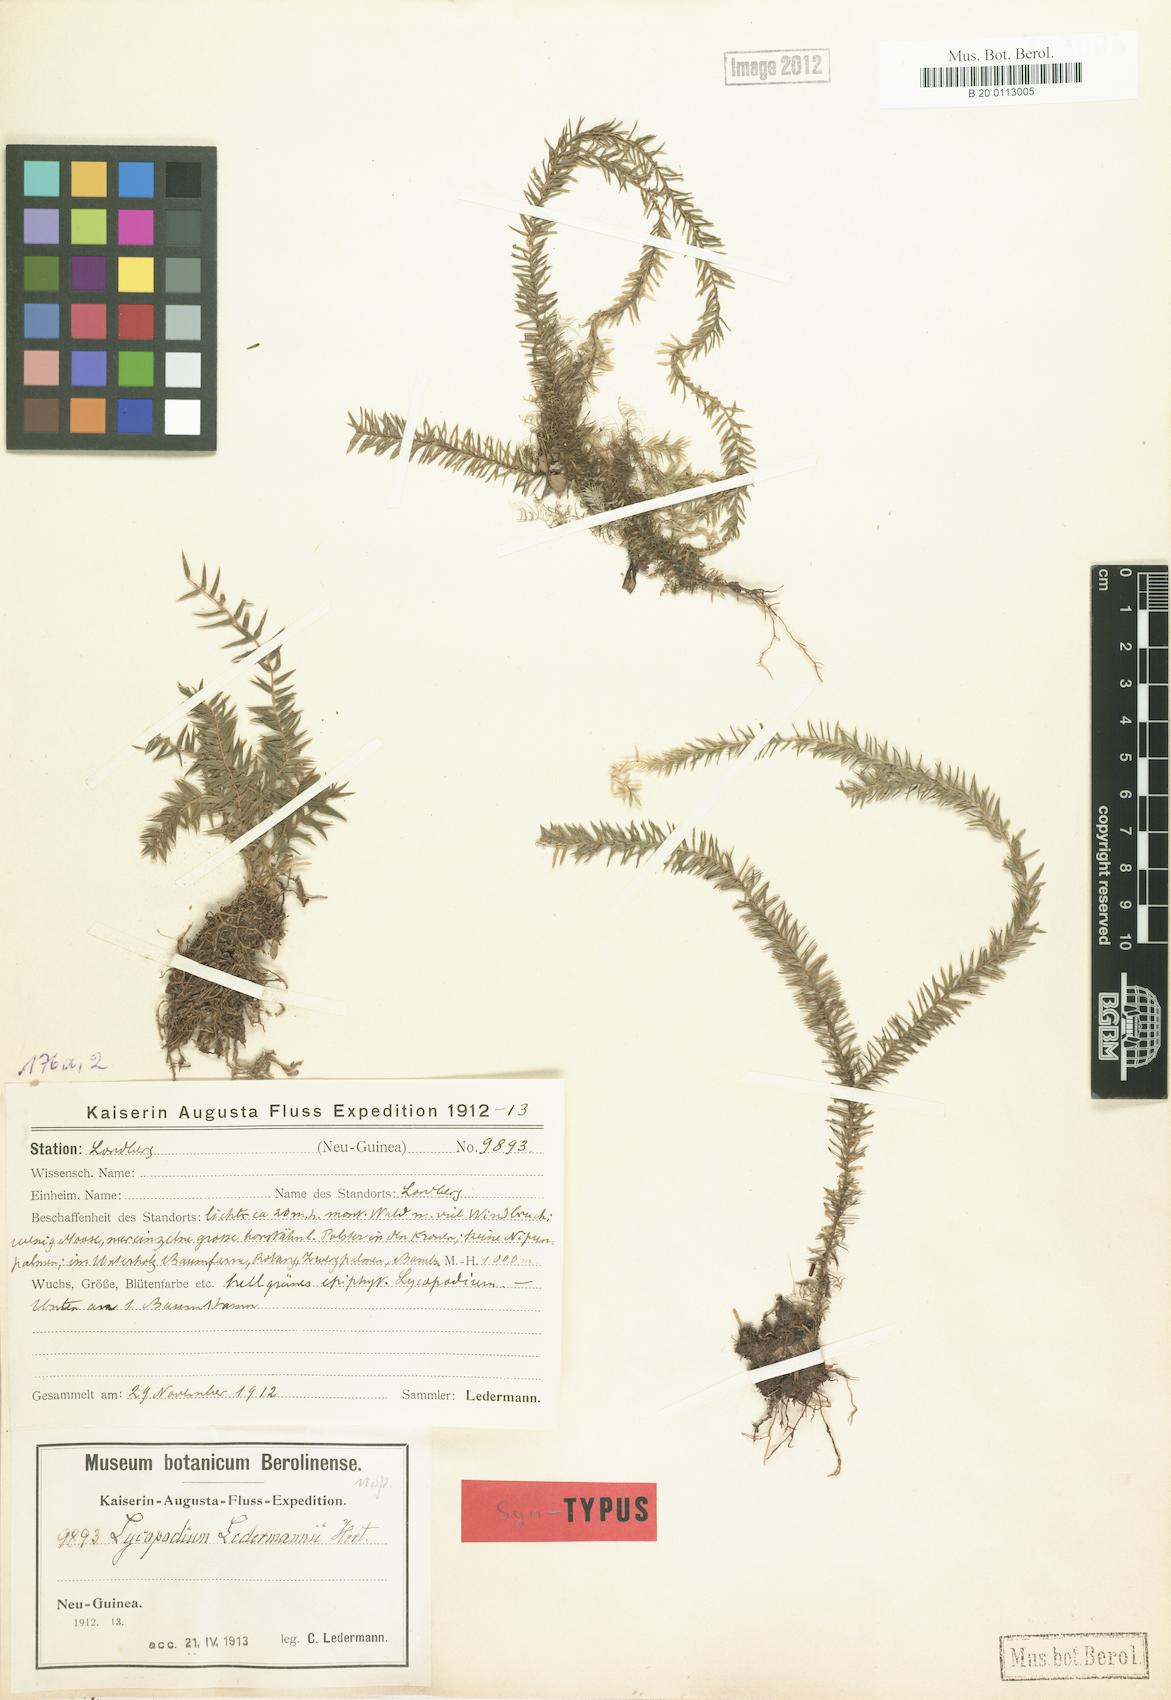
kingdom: Plantae
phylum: Tracheophyta
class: Lycopodiopsida
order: Lycopodiales
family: Lycopodiaceae
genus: Phlegmariurus
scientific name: Phlegmariurus ledermannii
